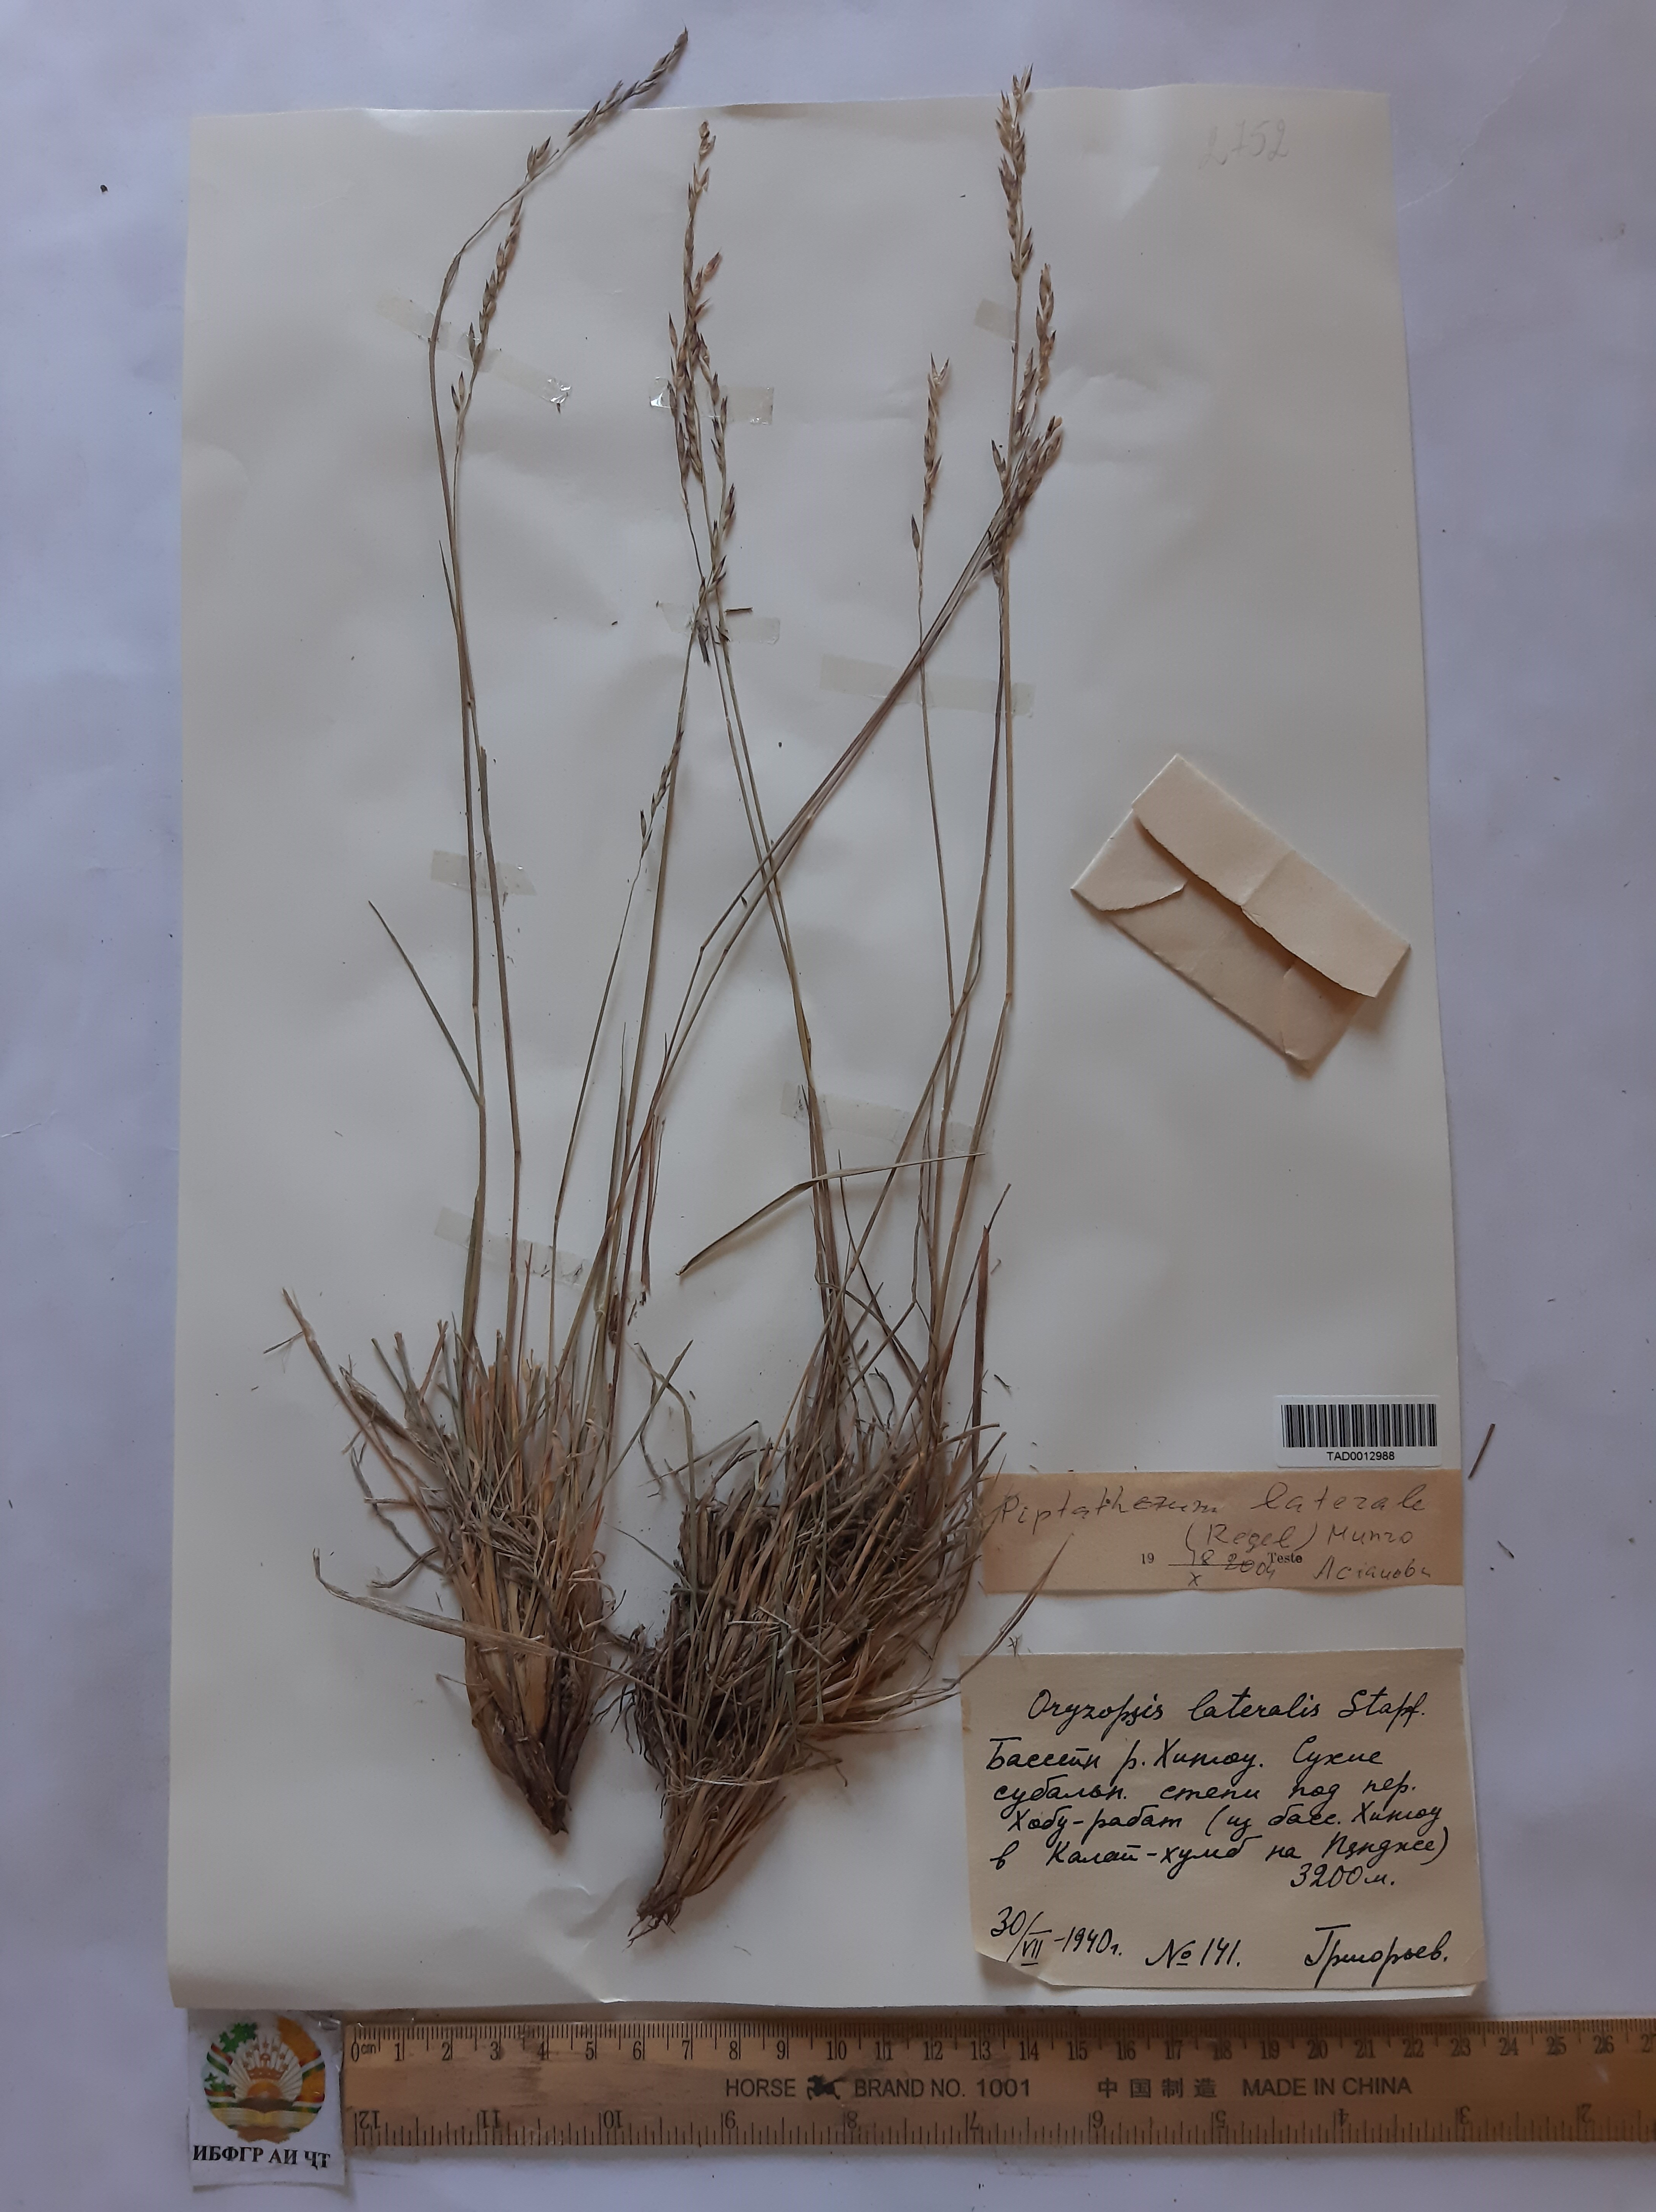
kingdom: Plantae
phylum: Tracheophyta
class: Liliopsida
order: Poales
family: Poaceae
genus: Piptatherum
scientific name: Piptatherum laterale
